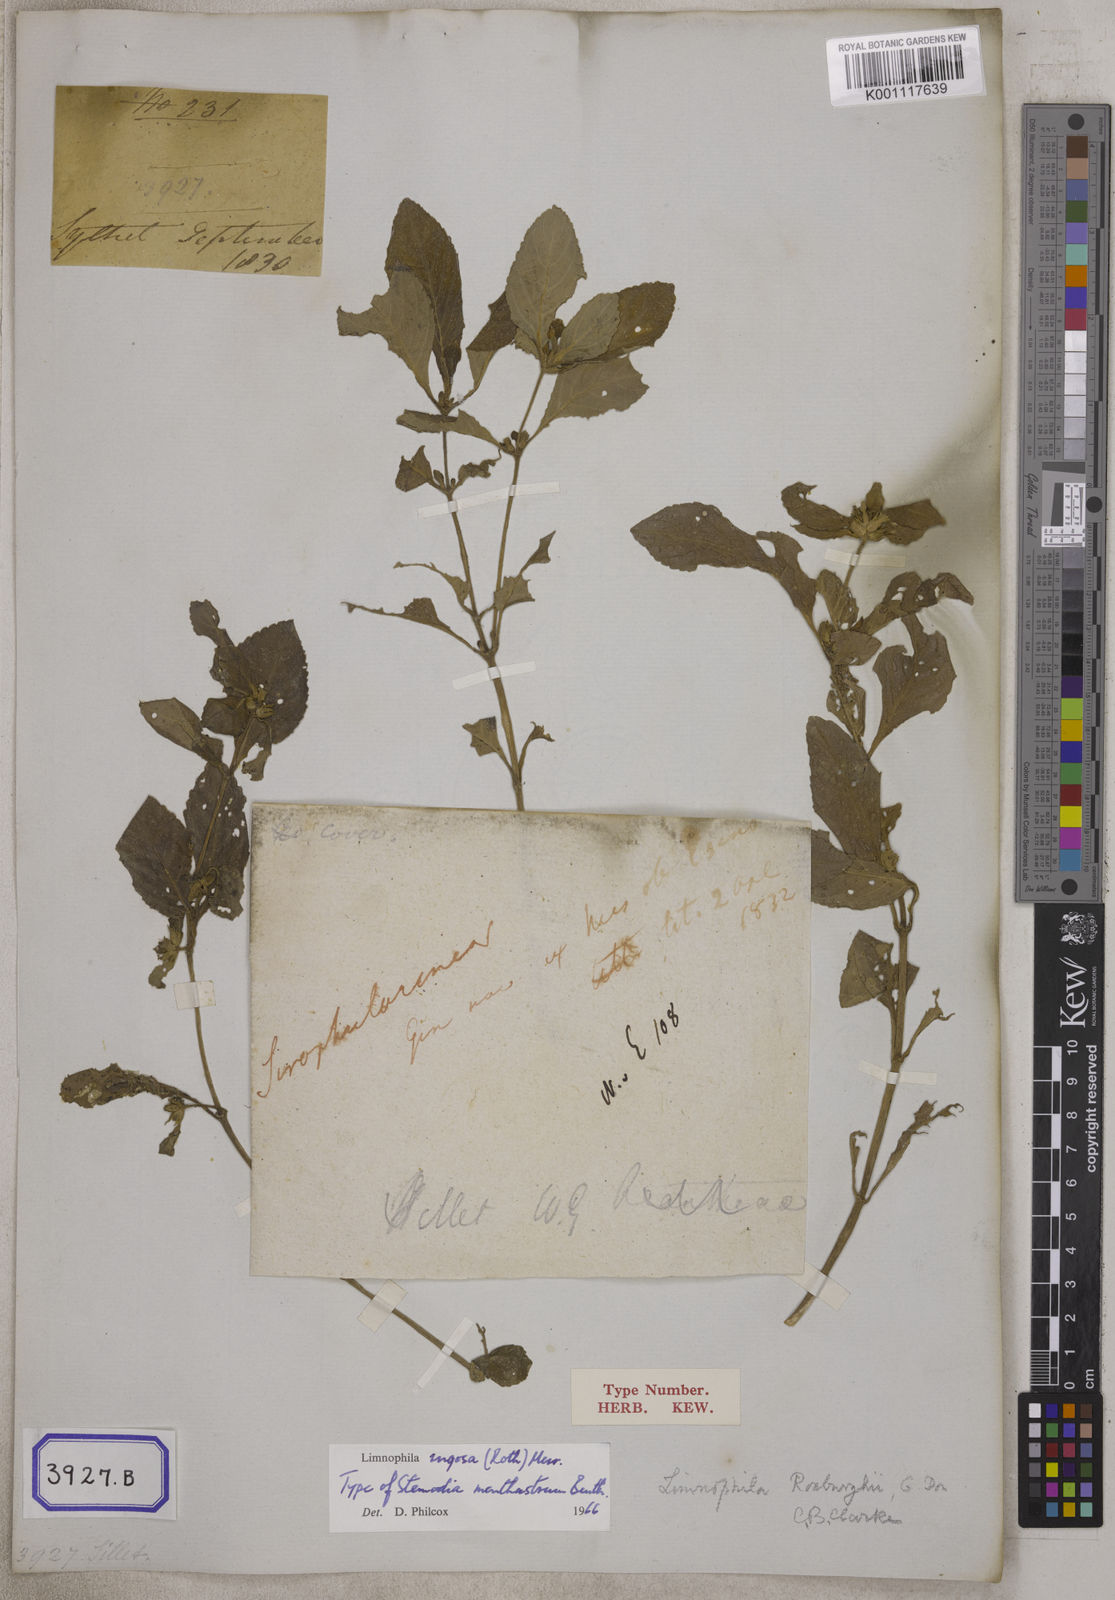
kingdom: Plantae
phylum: Tracheophyta
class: Magnoliopsida
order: Lamiales
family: Plantaginaceae
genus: Stemodia
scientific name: Stemodia
